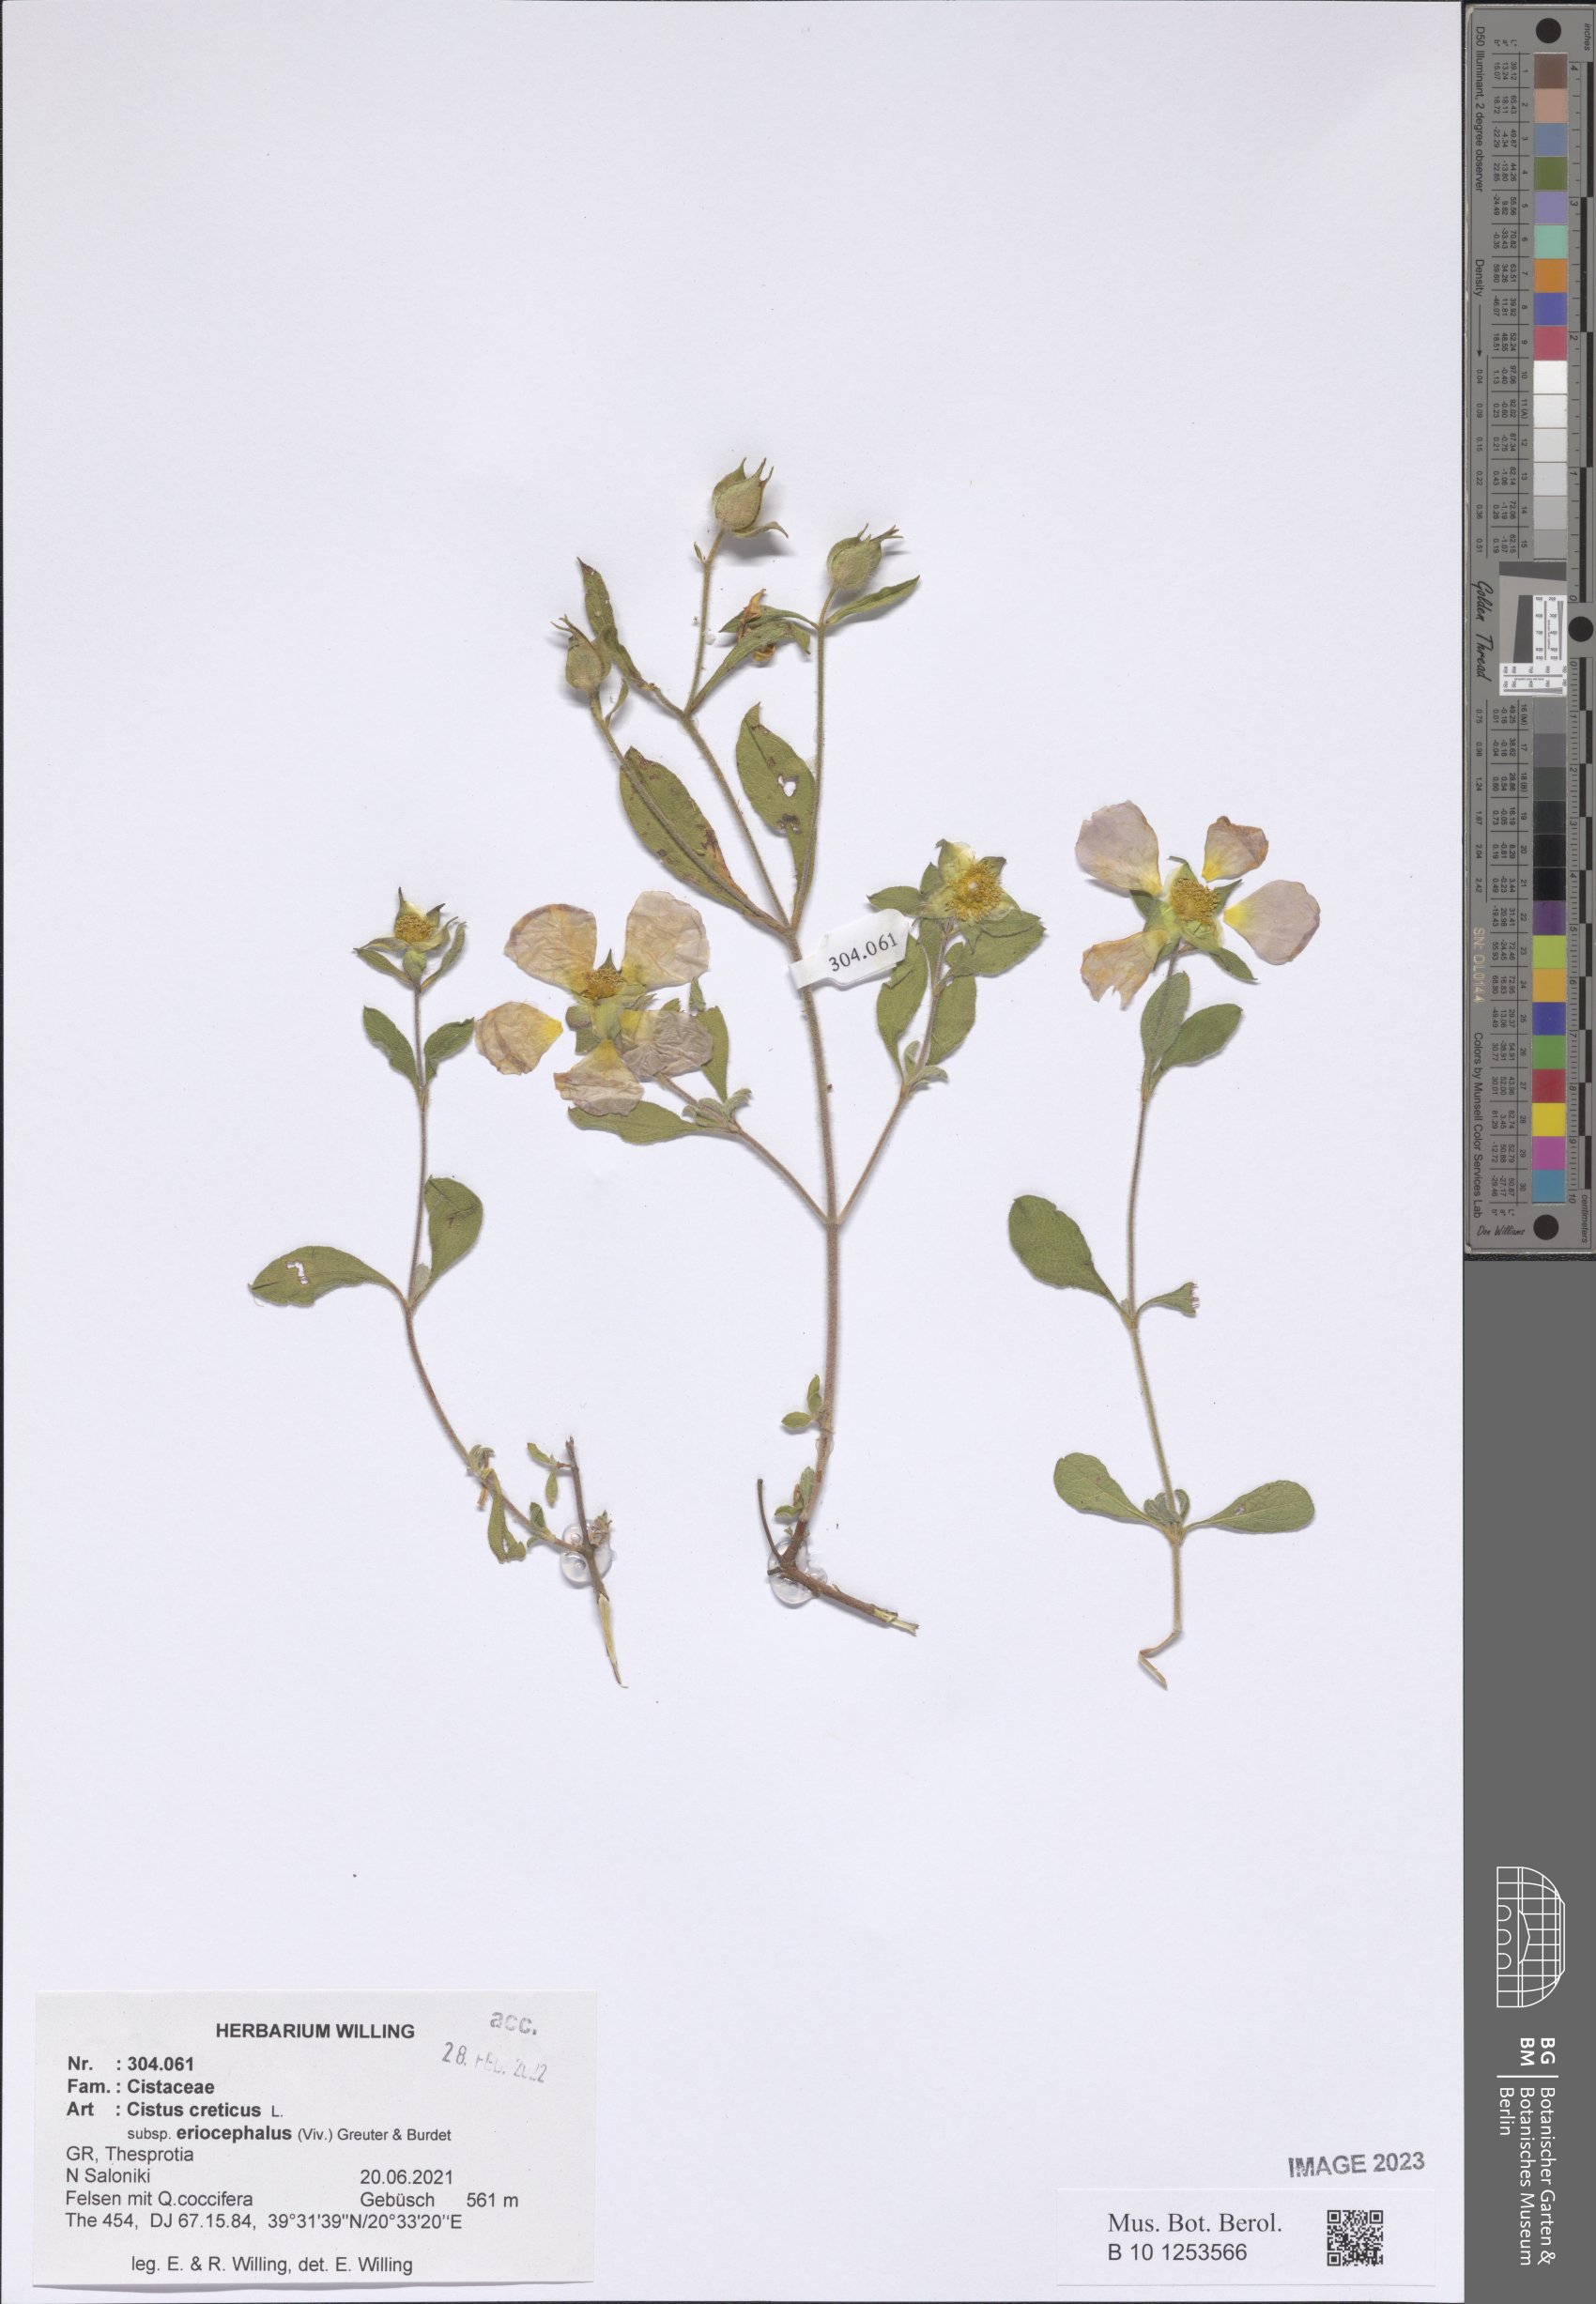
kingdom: Plantae
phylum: Tracheophyta
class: Magnoliopsida
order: Malvales
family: Cistaceae
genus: Cistus
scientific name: Cistus tauricus
